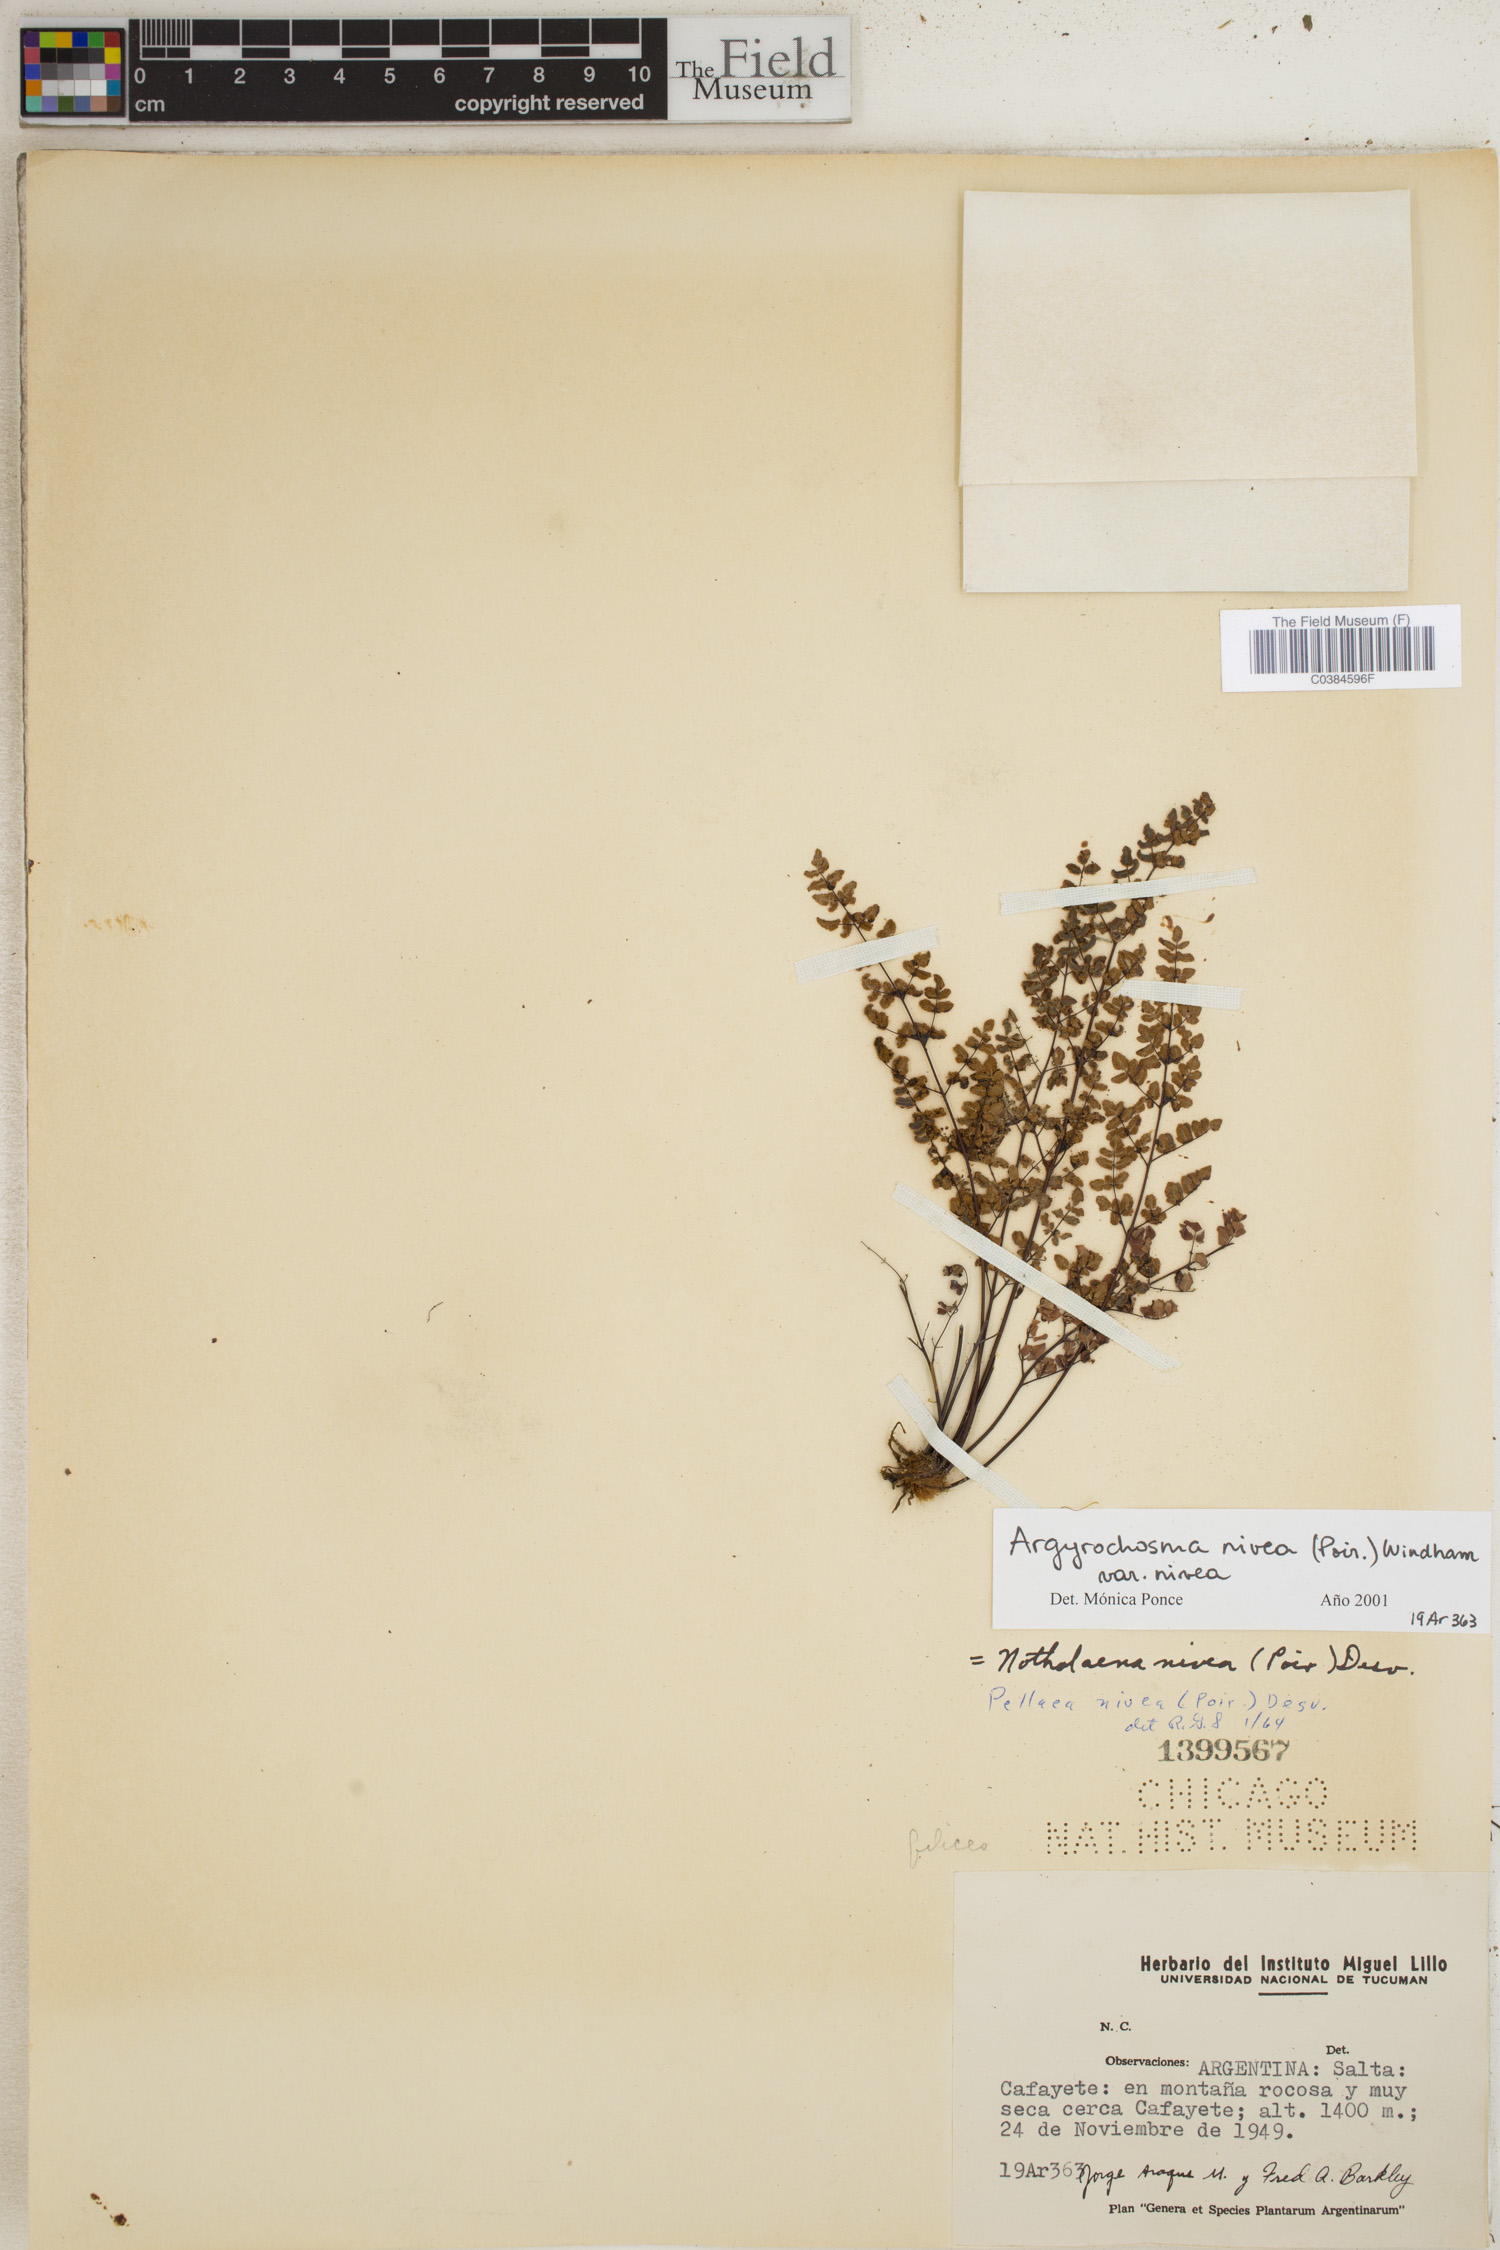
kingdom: Plantae
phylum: Tracheophyta
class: Polypodiopsida
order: Polypodiales
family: Pteridaceae
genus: Argyrochosma
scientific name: Argyrochosma nivea
